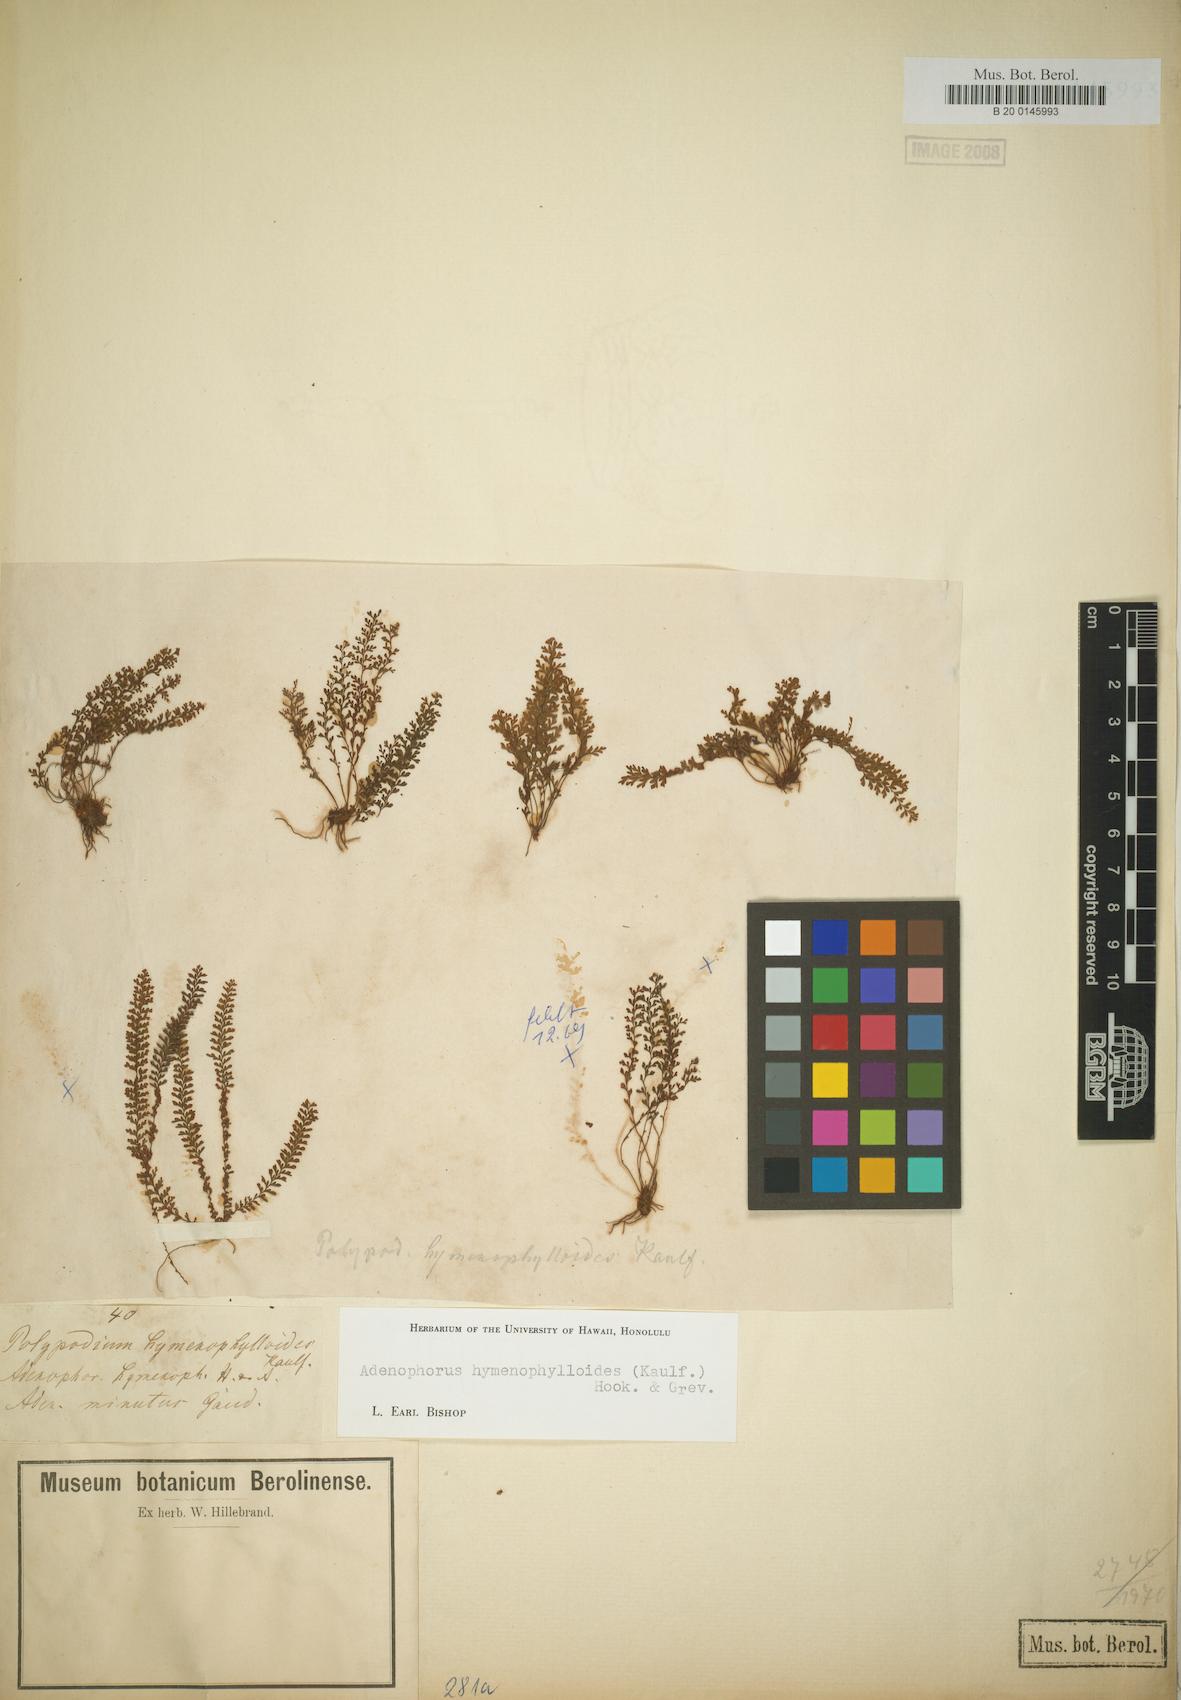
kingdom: Plantae
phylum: Tracheophyta
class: Polypodiopsida
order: Polypodiales
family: Polypodiaceae
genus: Adenophorus
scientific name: Adenophorus hymenophylloides
